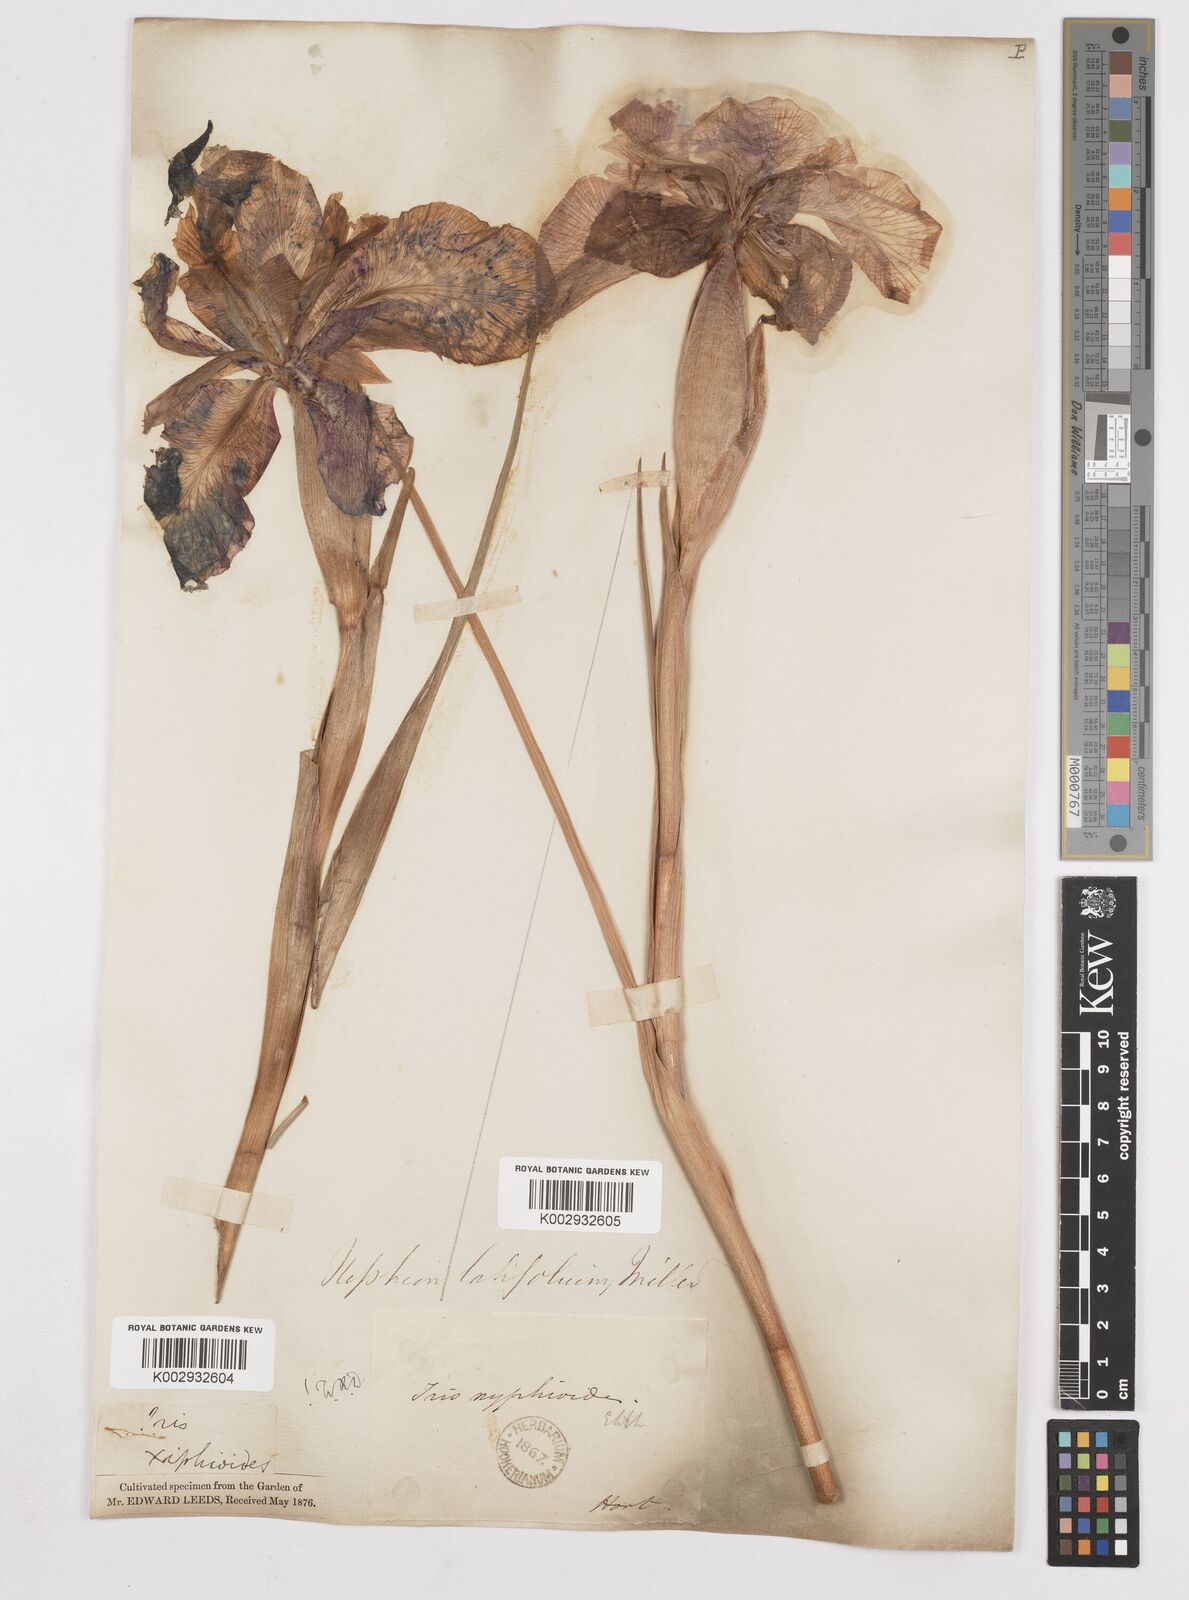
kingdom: Plantae
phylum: Tracheophyta
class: Liliopsida
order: Asparagales
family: Iridaceae
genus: Iris
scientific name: Iris jacquinii
